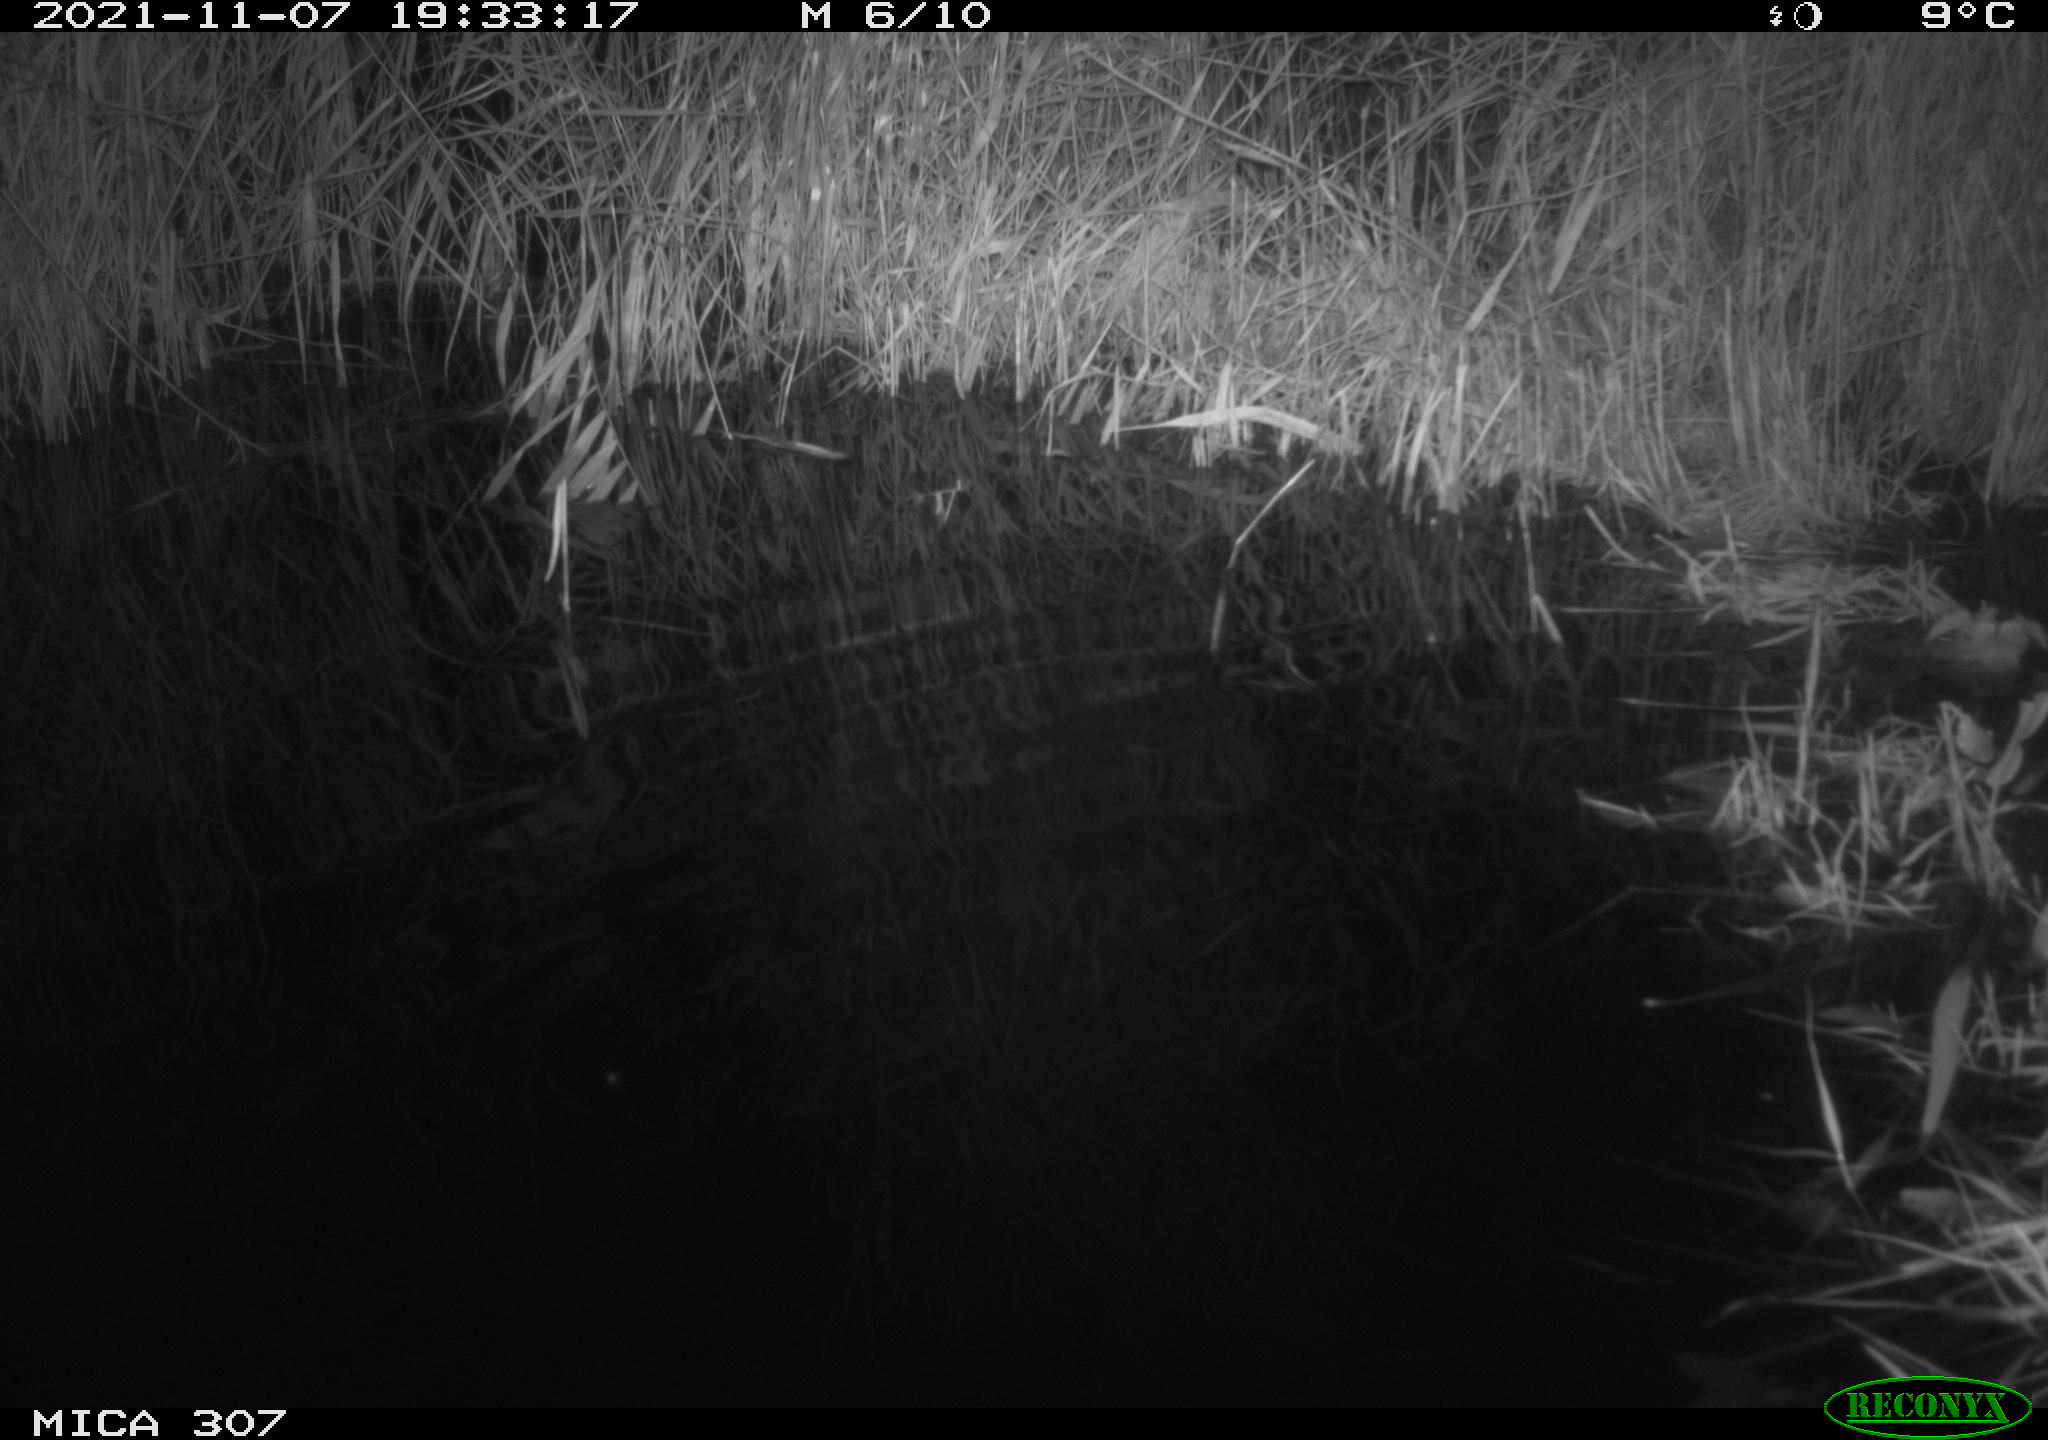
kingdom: Animalia
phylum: Chordata
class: Mammalia
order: Rodentia
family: Muridae
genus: Rattus
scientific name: Rattus norvegicus
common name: Brown rat
